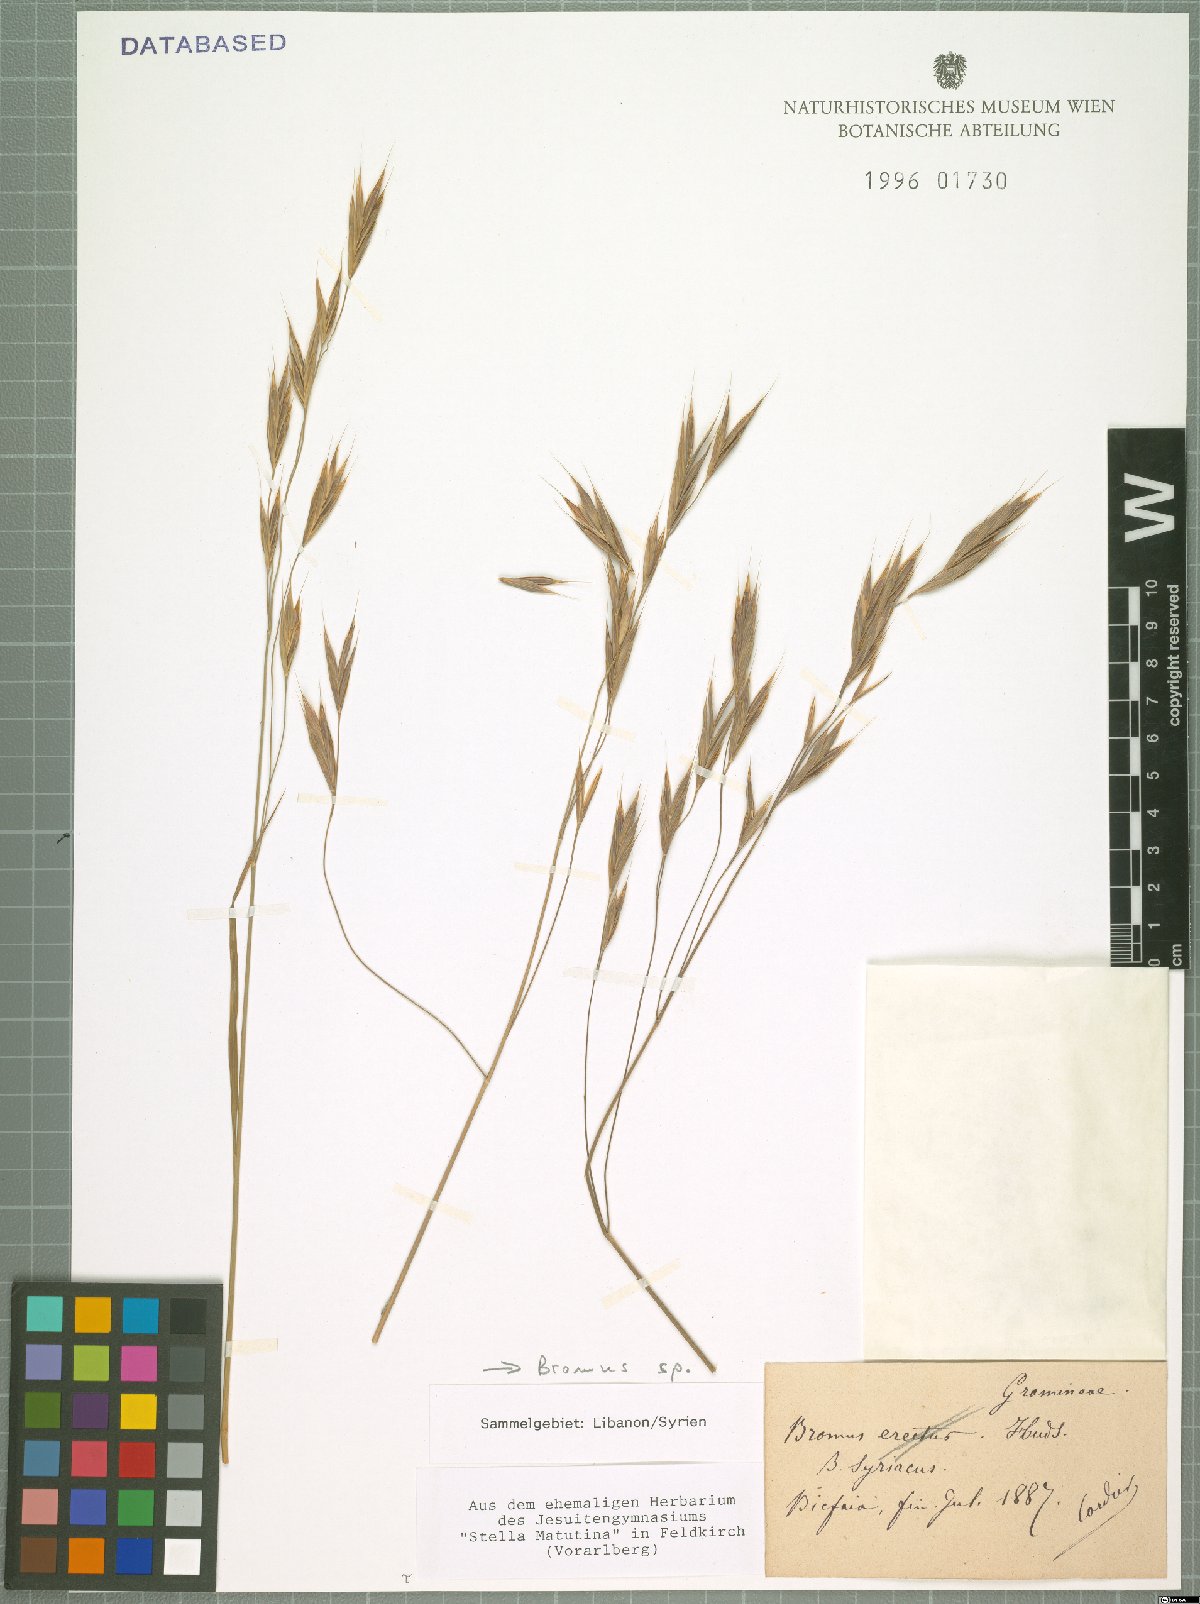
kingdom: Plantae
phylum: Tracheophyta
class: Liliopsida
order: Poales
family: Poaceae
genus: Bromus
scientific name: Bromus
